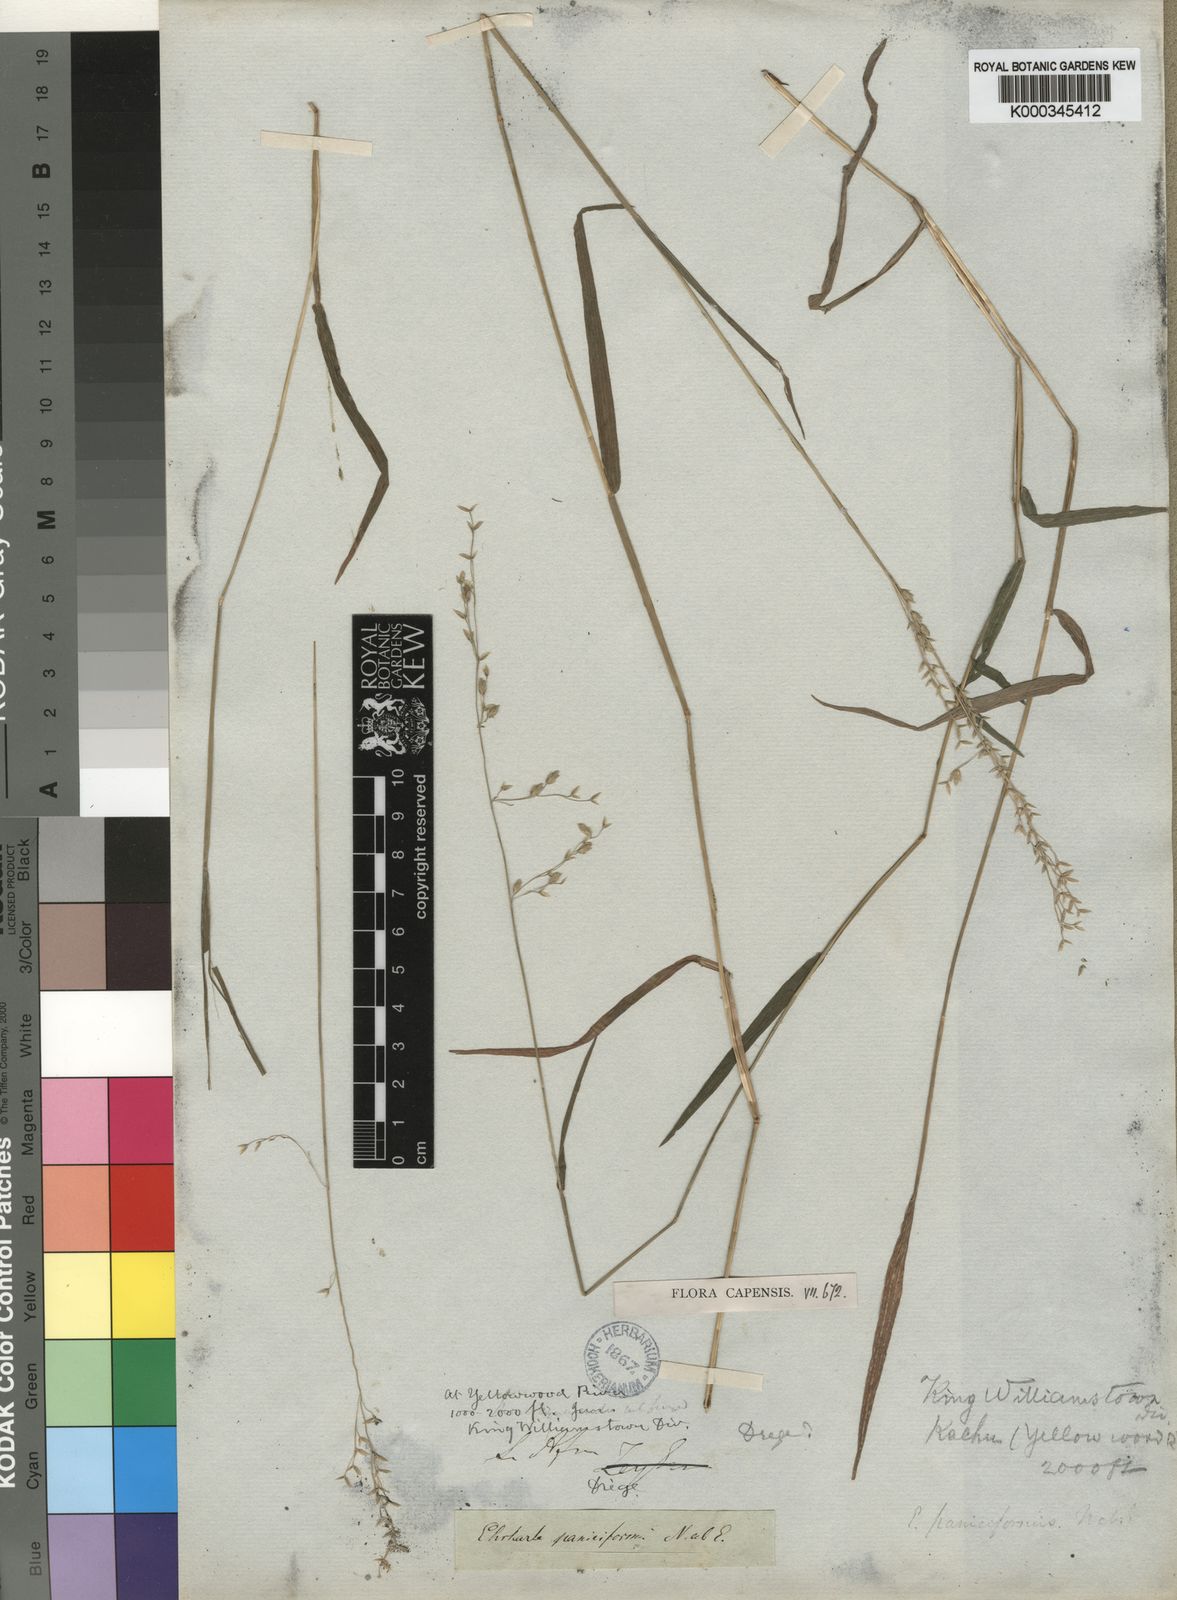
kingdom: Plantae
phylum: Tracheophyta
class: Liliopsida
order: Poales
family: Poaceae
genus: Ehrharta
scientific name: Ehrharta erecta
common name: Panic veldtgrass
